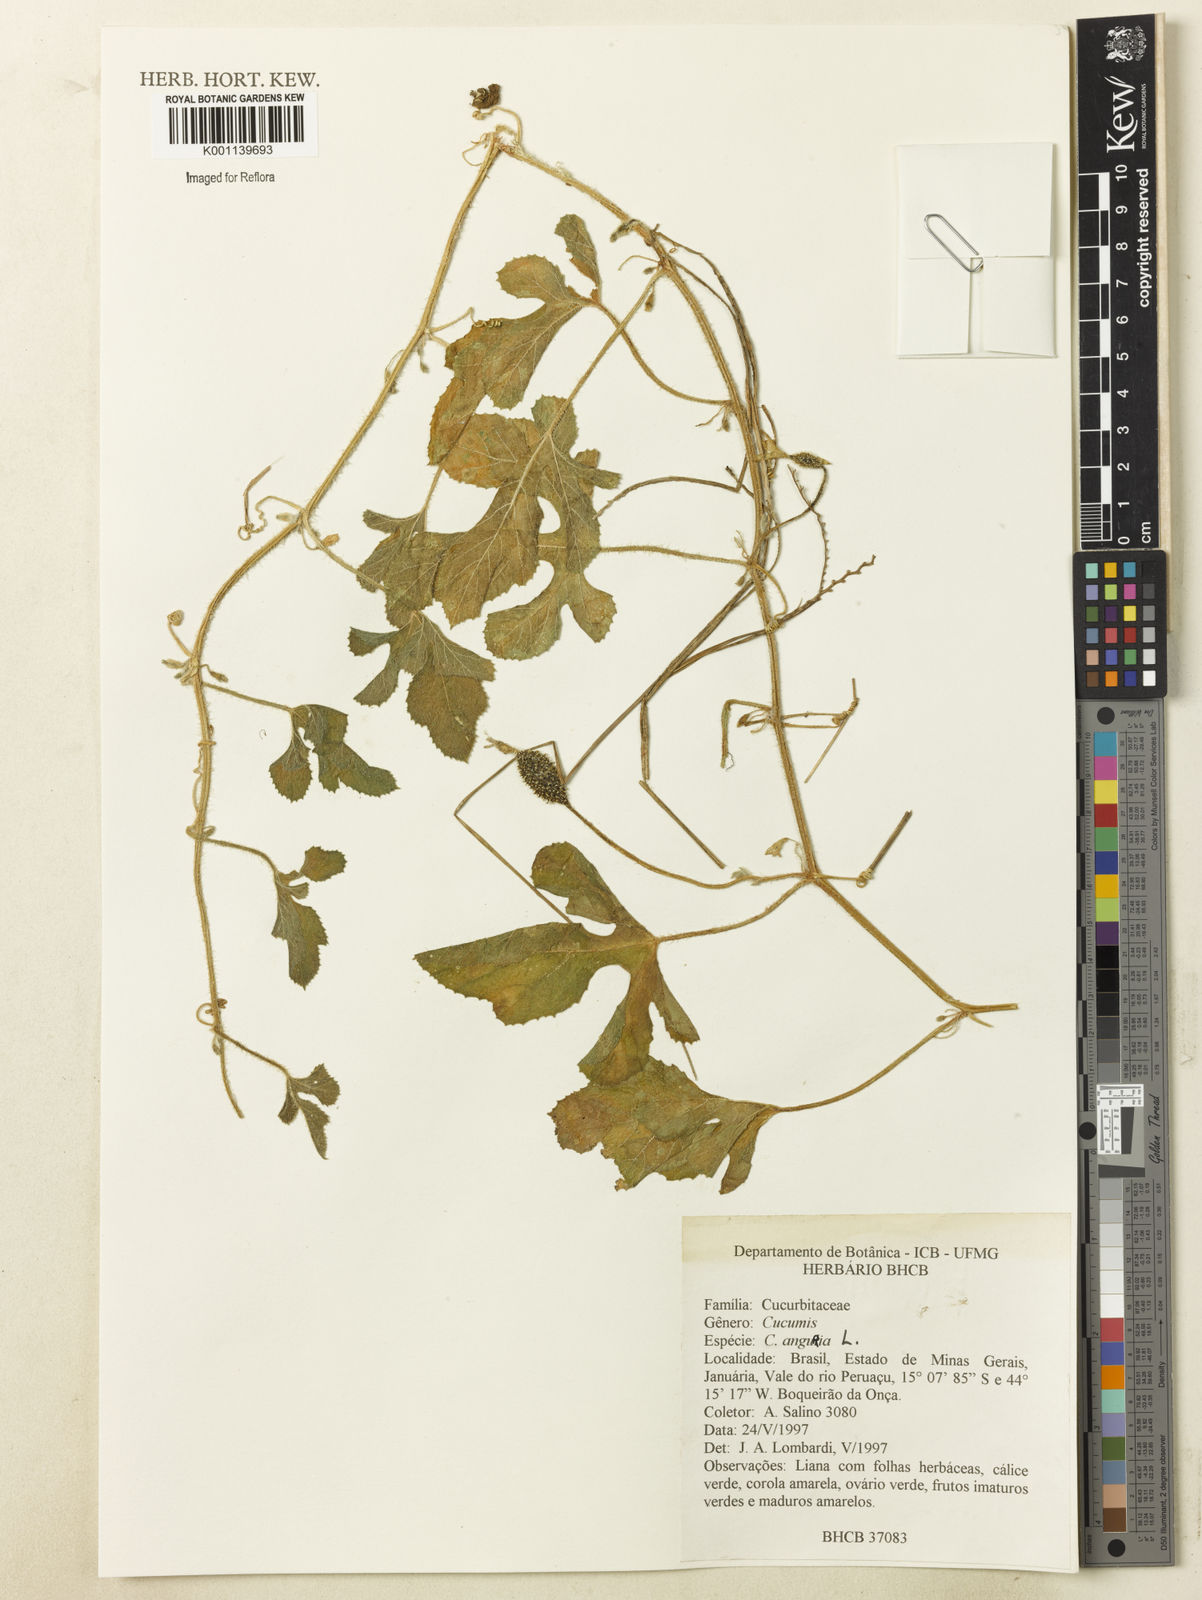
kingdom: Plantae
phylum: Tracheophyta
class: Magnoliopsida
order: Cucurbitales
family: Cucurbitaceae
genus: Cucumis
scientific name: Cucumis anguria
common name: West indian gherkin
